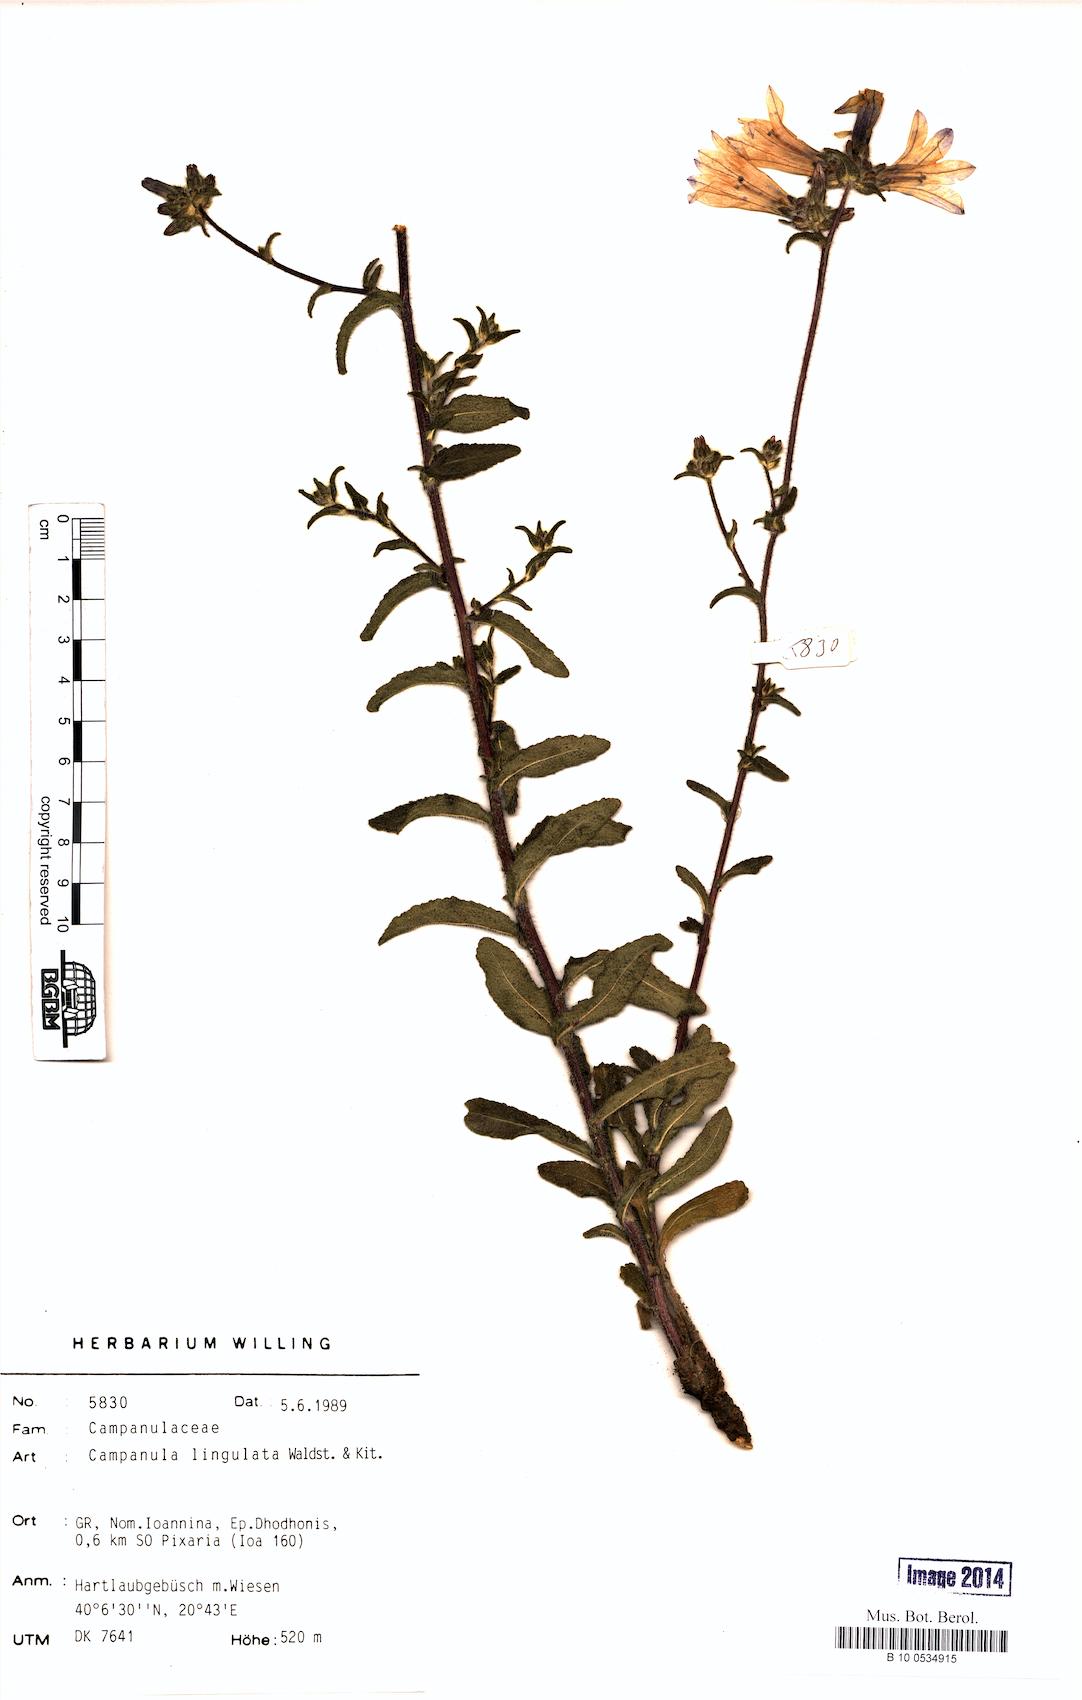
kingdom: Plantae
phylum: Tracheophyta
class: Magnoliopsida
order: Asterales
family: Campanulaceae
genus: Campanula
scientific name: Campanula lingulata
